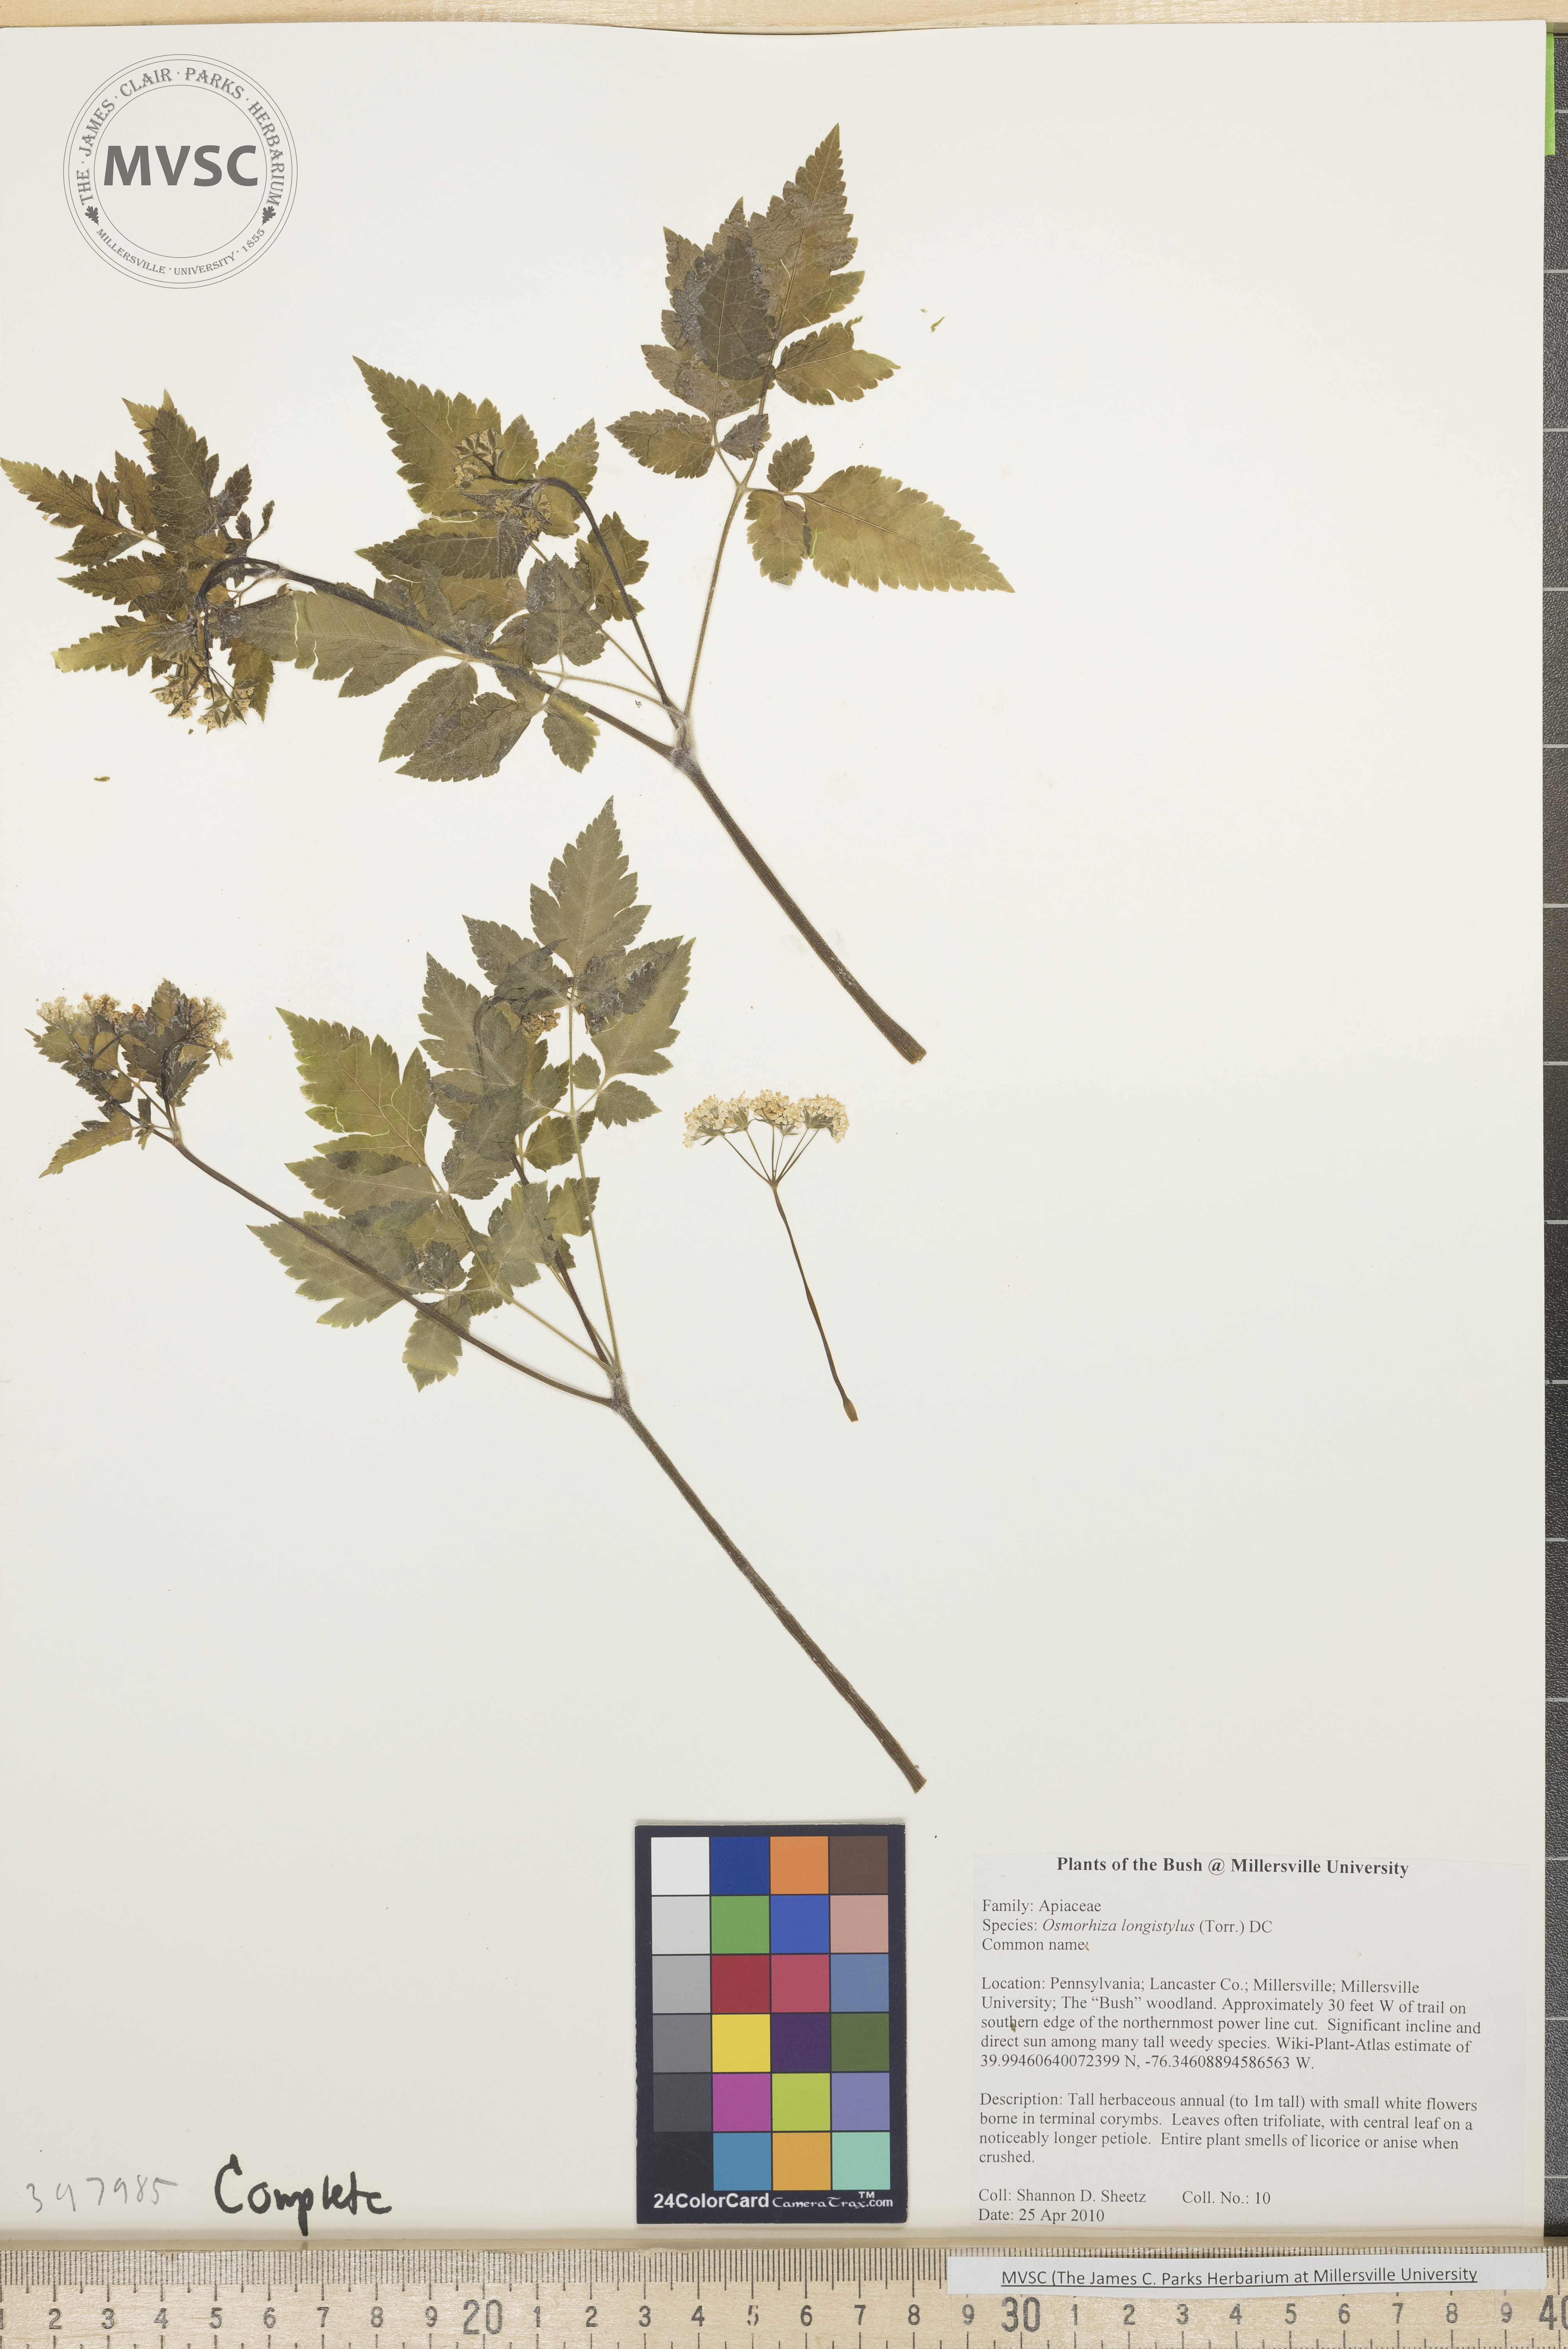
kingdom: Plantae
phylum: Tracheophyta
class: Magnoliopsida
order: Apiales
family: Apiaceae
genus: Osmorhiza
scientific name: Osmorhiza longistylis
